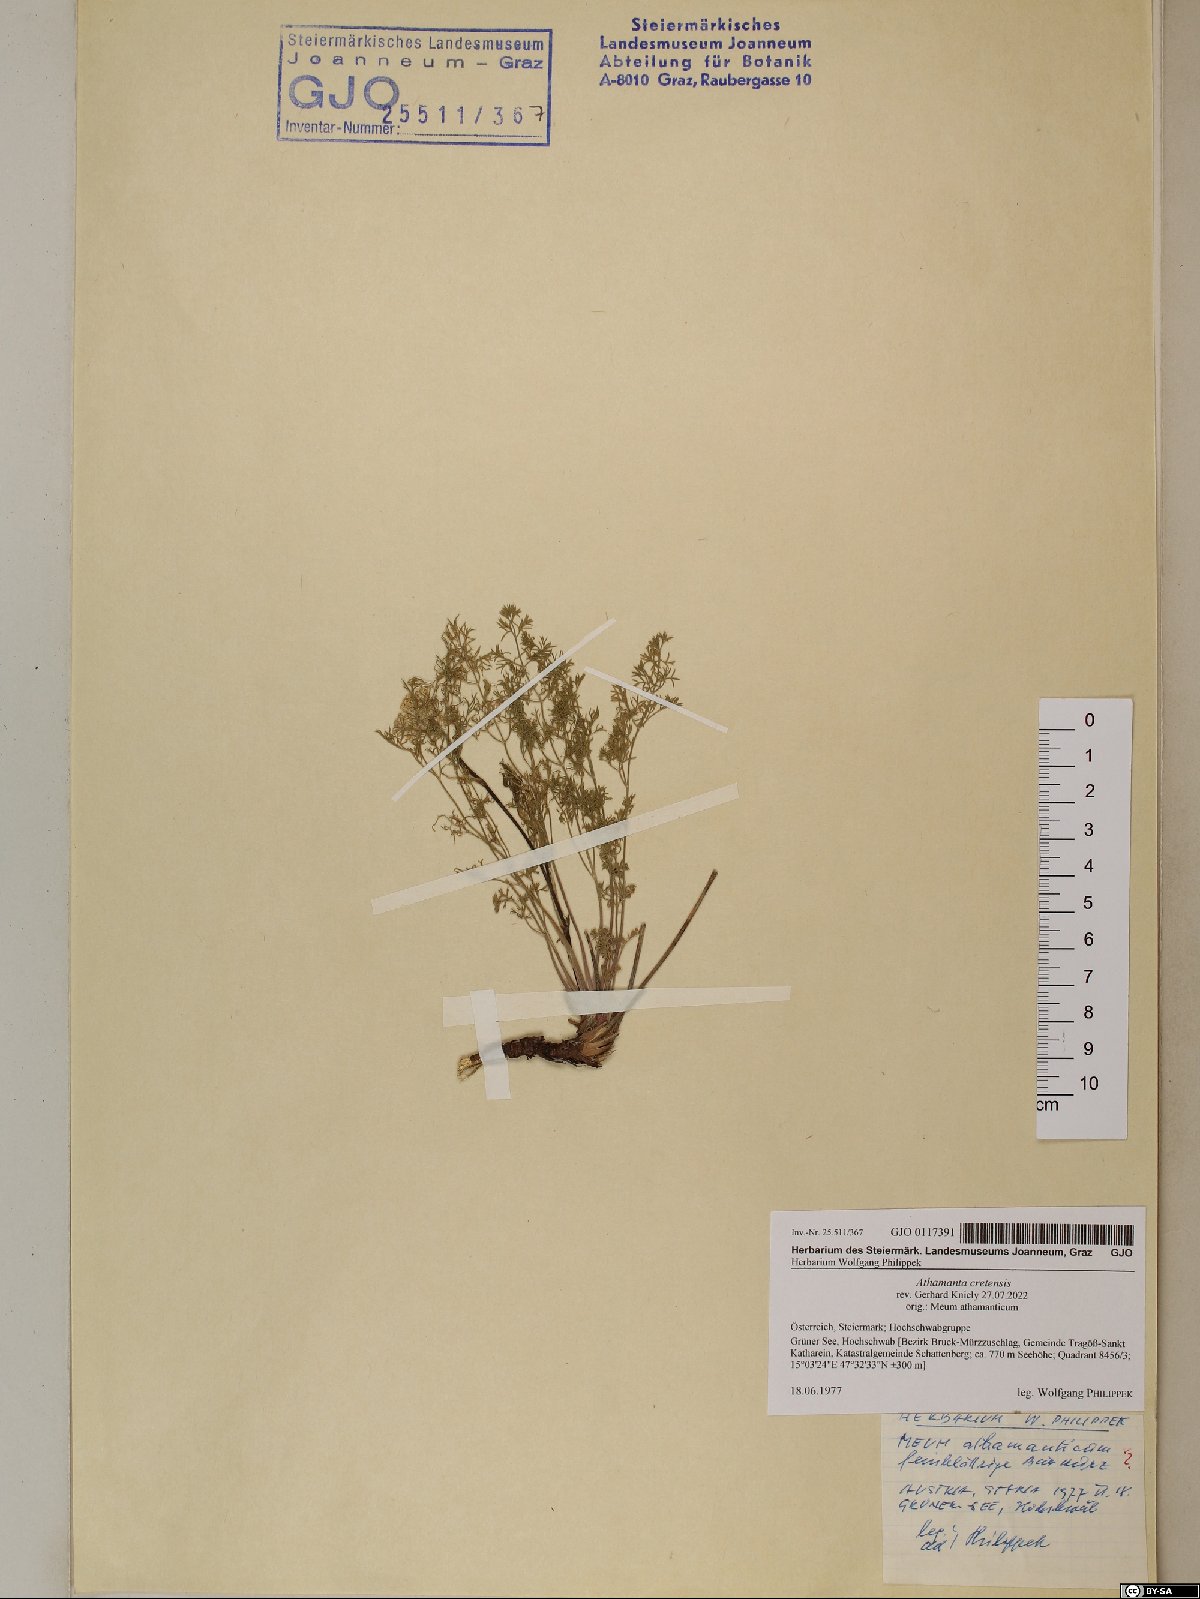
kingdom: Plantae
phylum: Tracheophyta
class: Magnoliopsida
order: Apiales
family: Apiaceae
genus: Athamanta
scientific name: Athamanta cretensis
